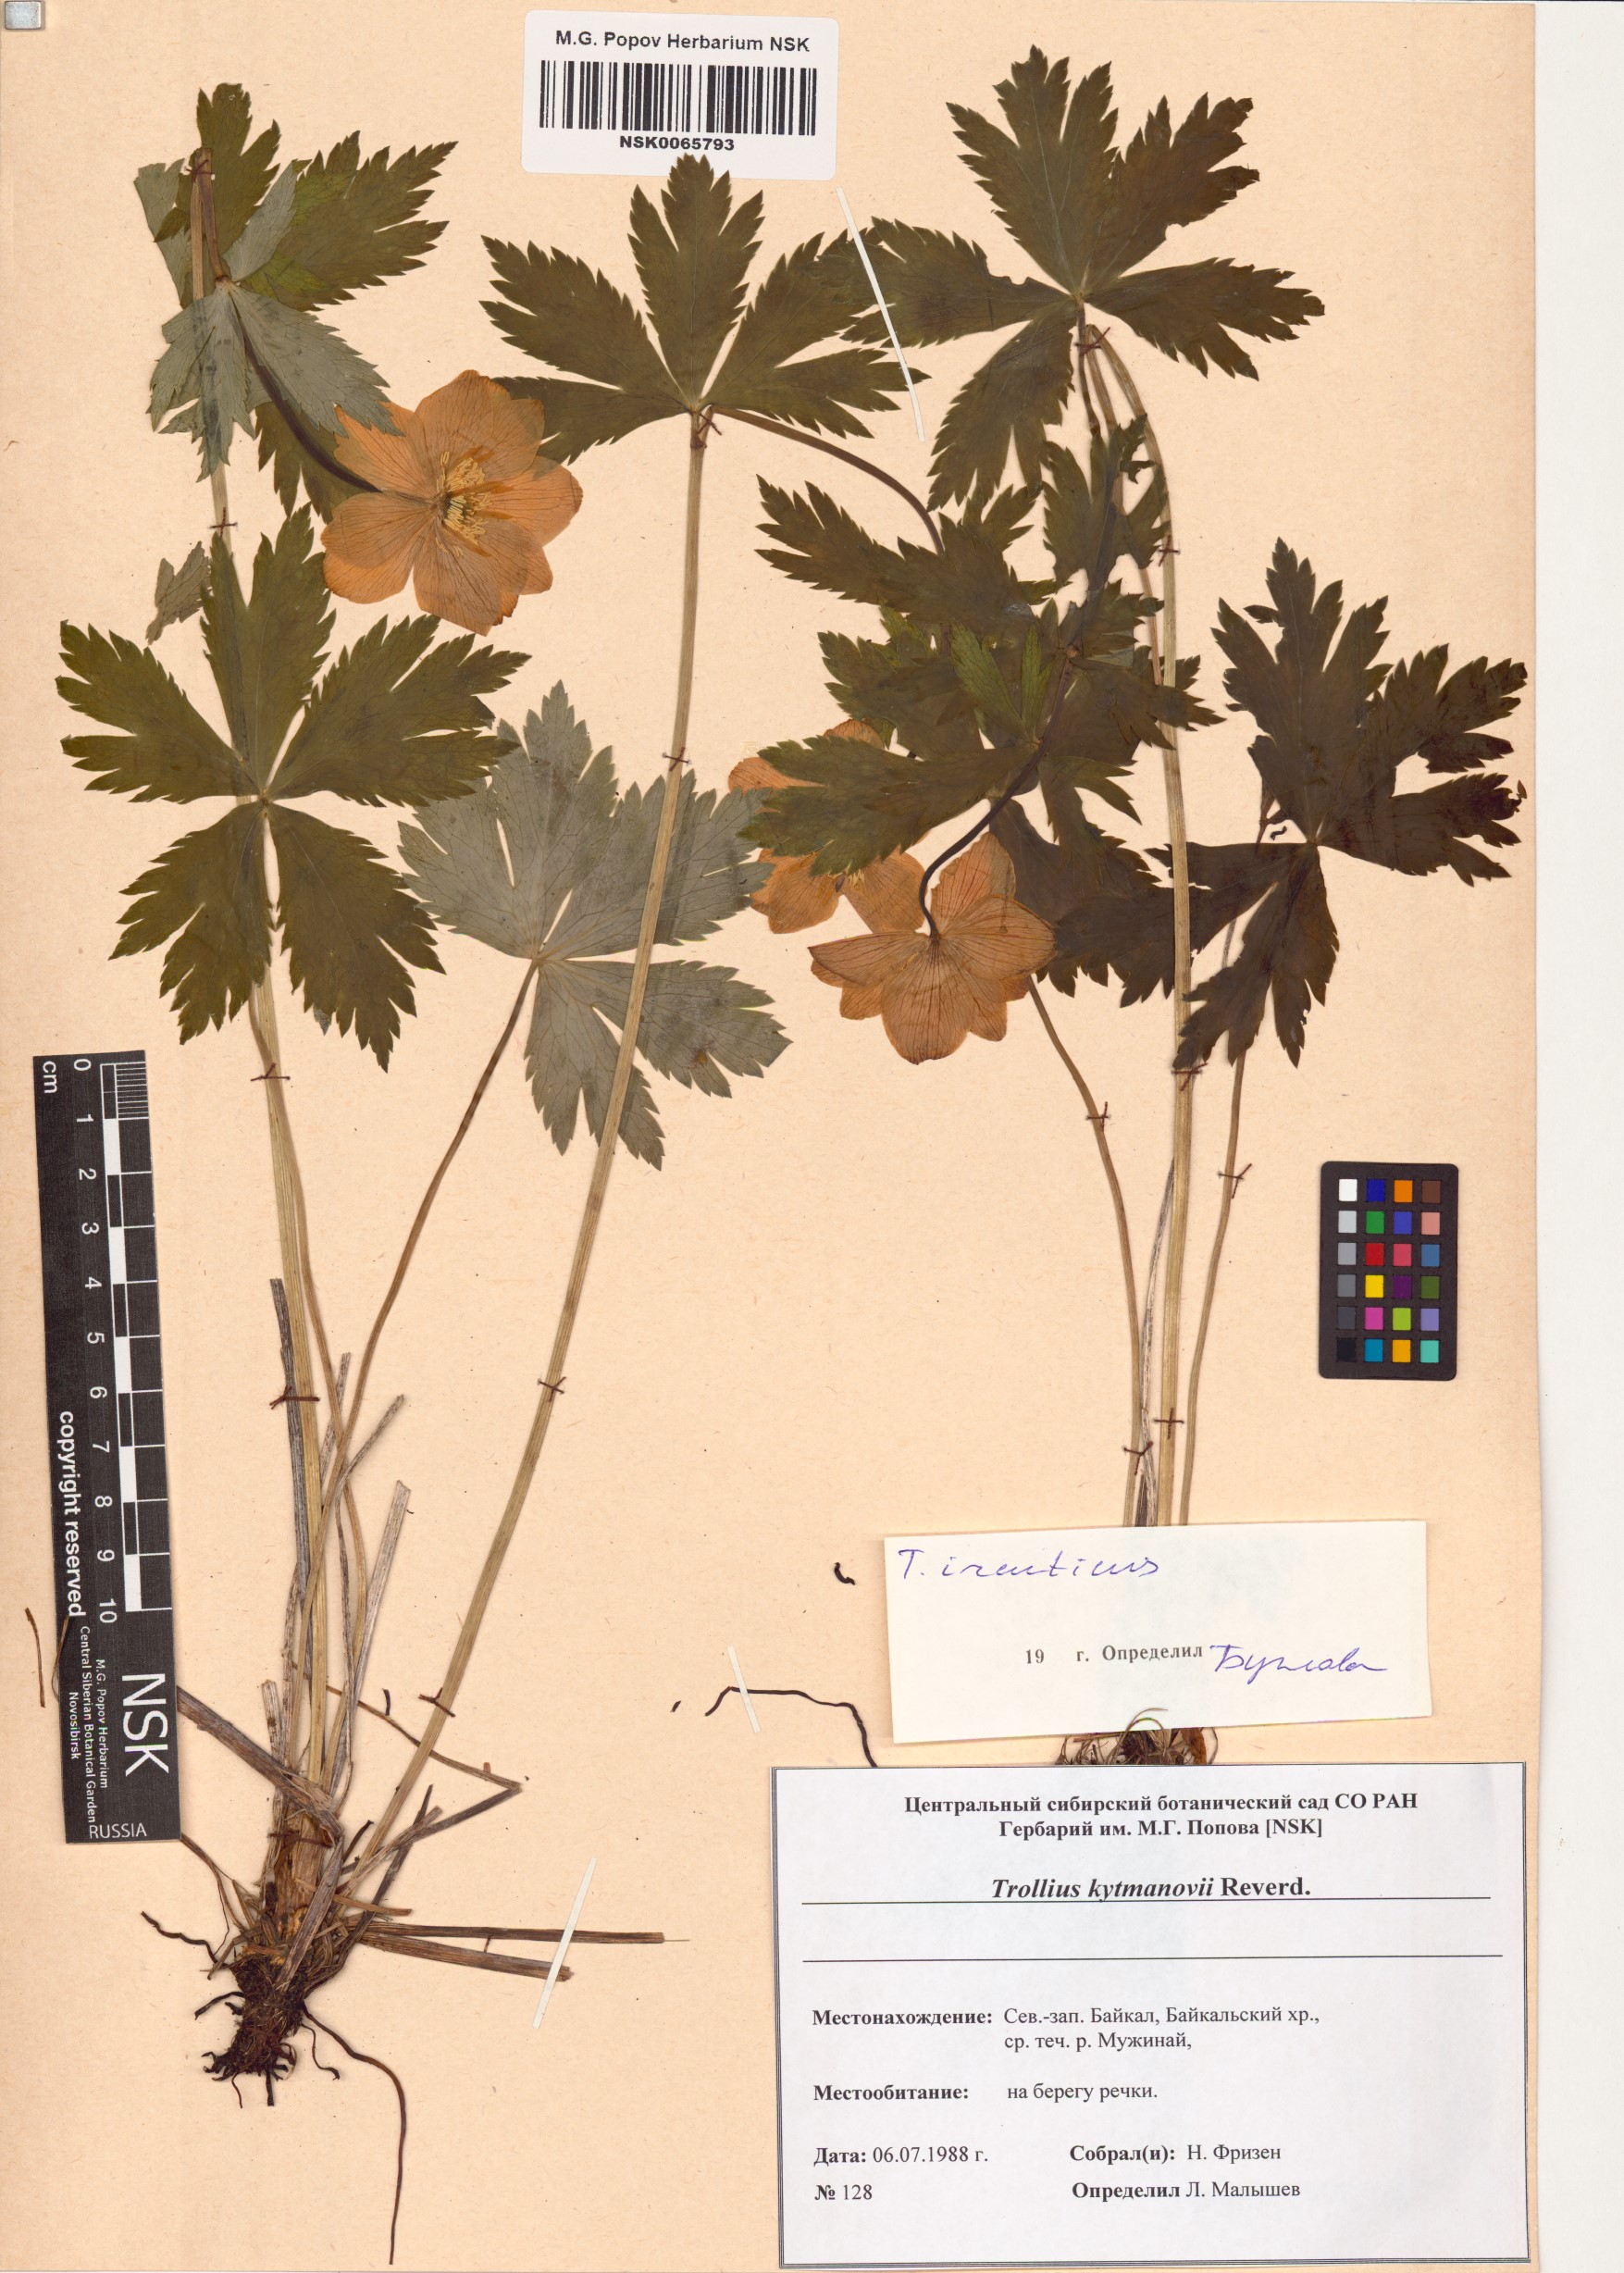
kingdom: Plantae
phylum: Tracheophyta
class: Magnoliopsida
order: Ranunculales
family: Ranunculaceae
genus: Trollius
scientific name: Trollius kytmanovii
